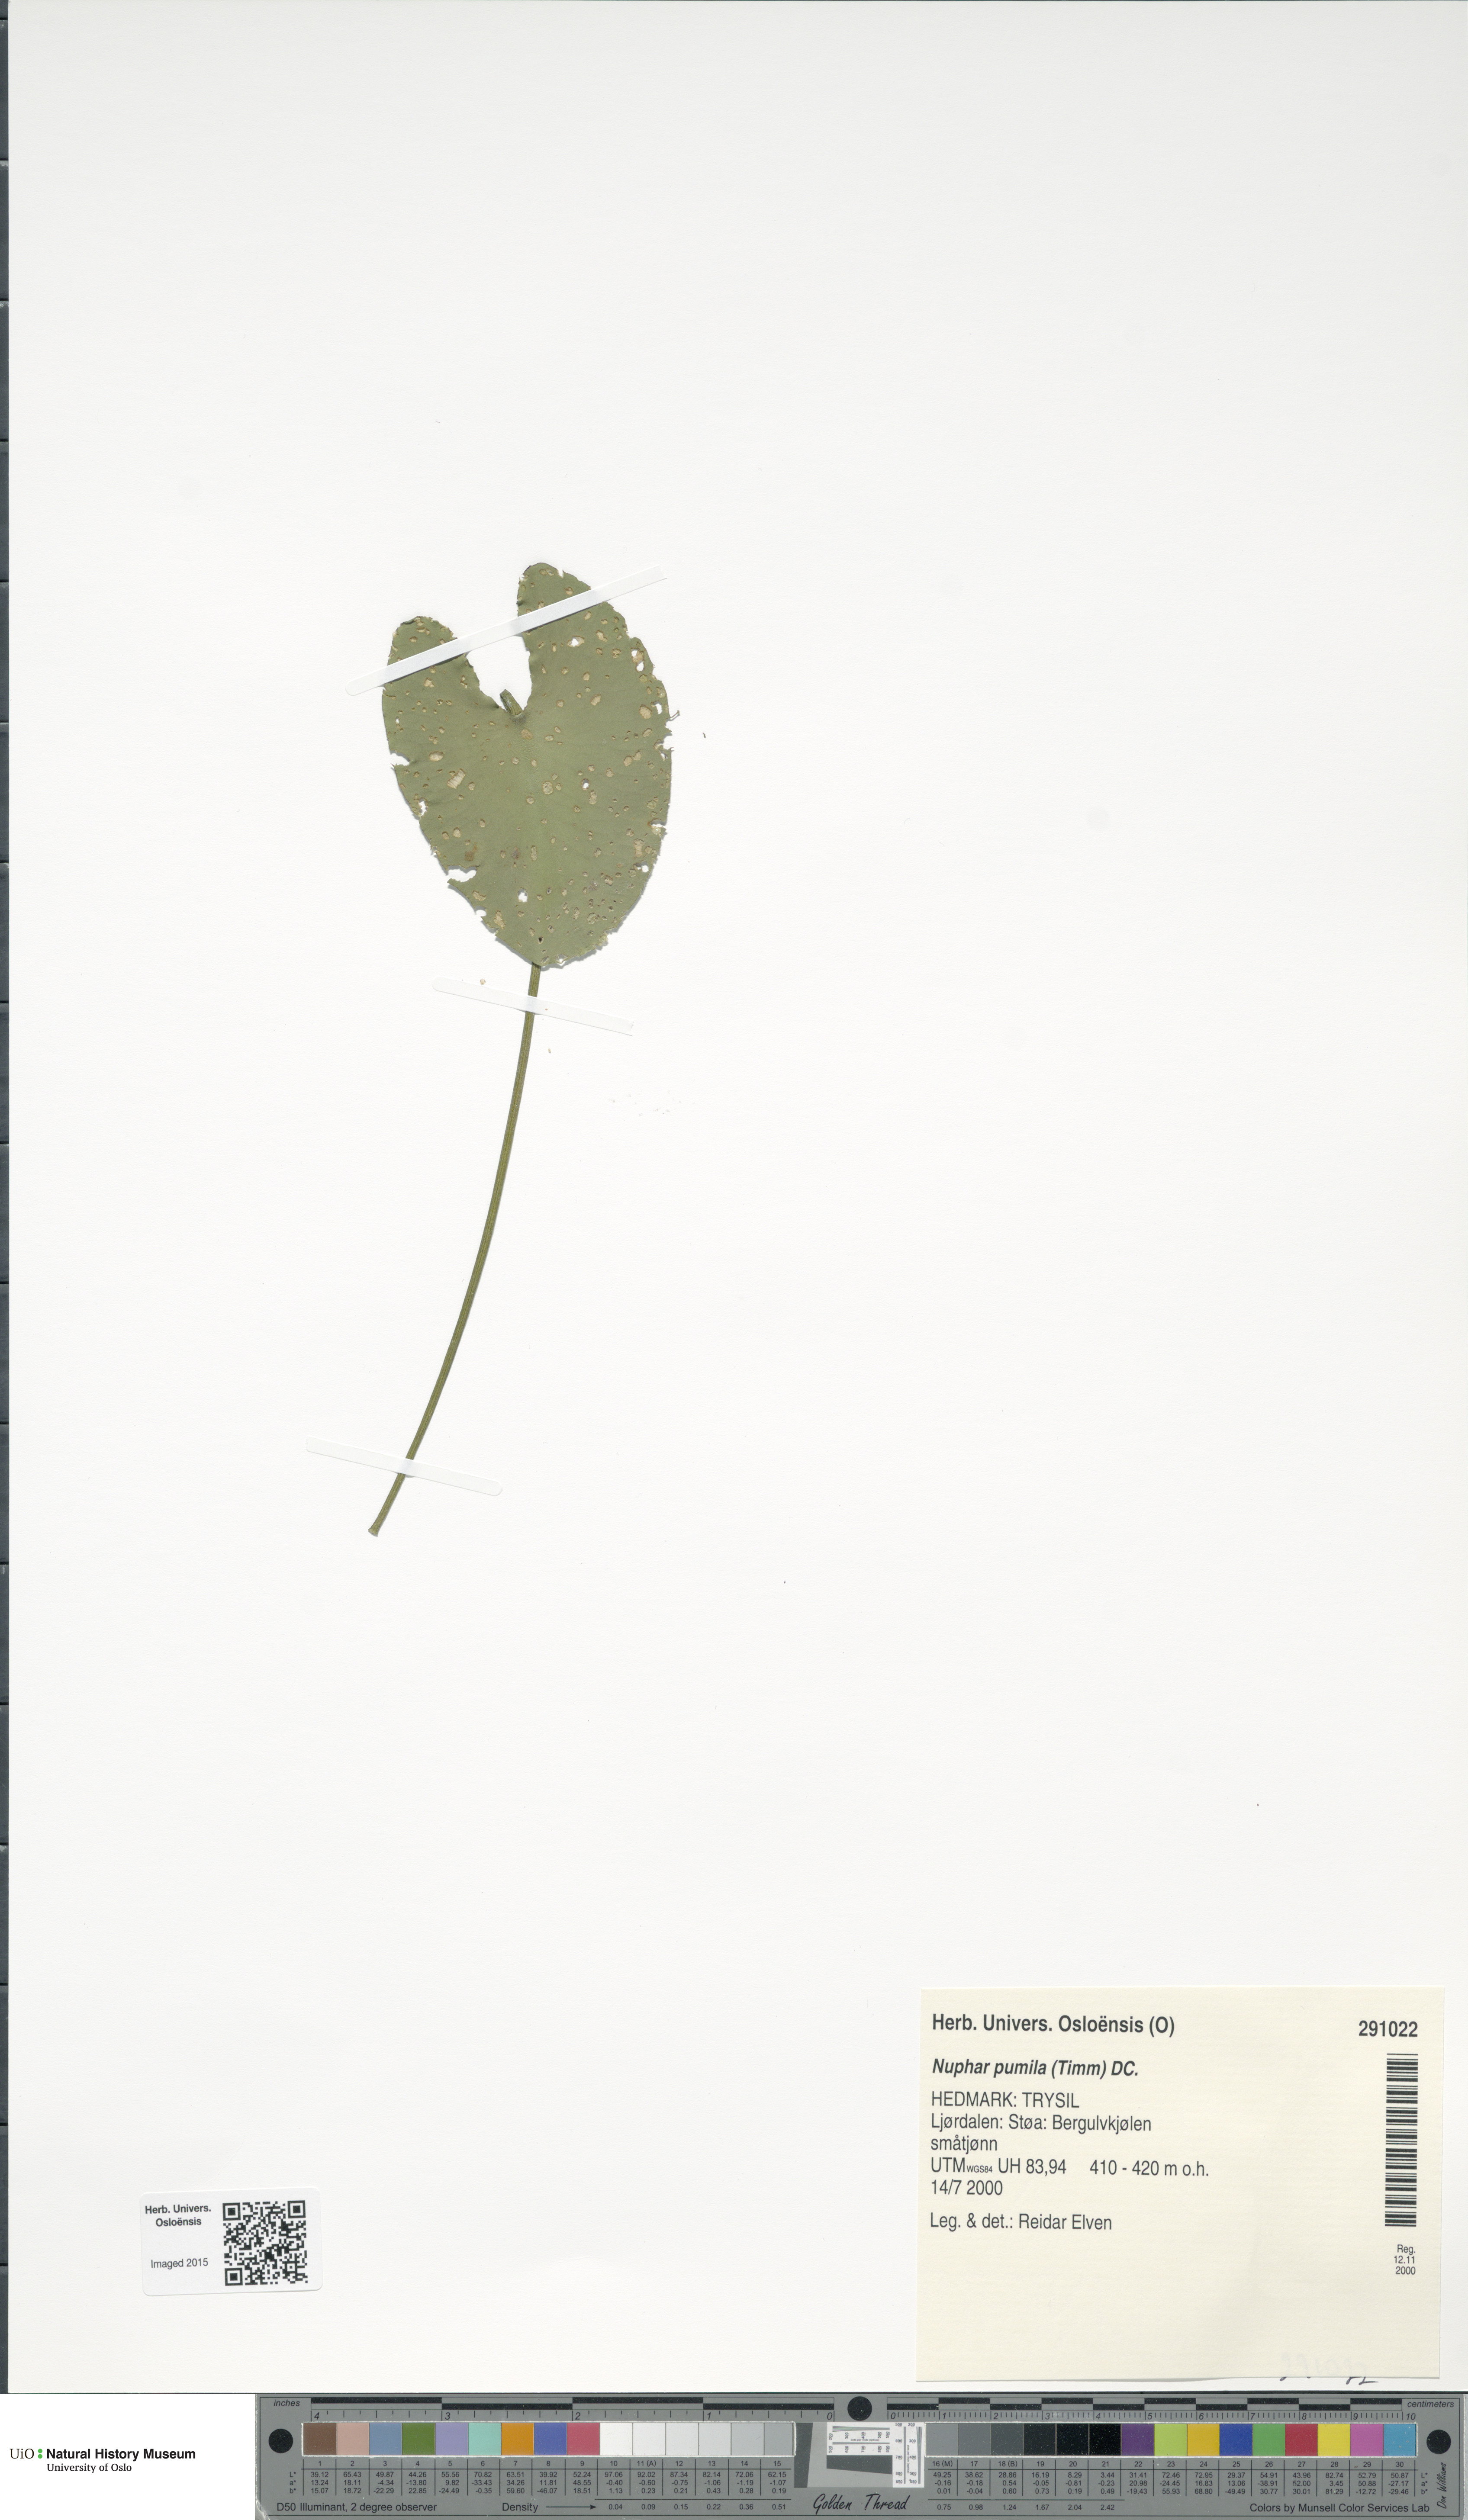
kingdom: Plantae
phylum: Tracheophyta
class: Magnoliopsida
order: Nymphaeales
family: Nymphaeaceae
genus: Nuphar
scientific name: Nuphar pumila
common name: Least water-lily
